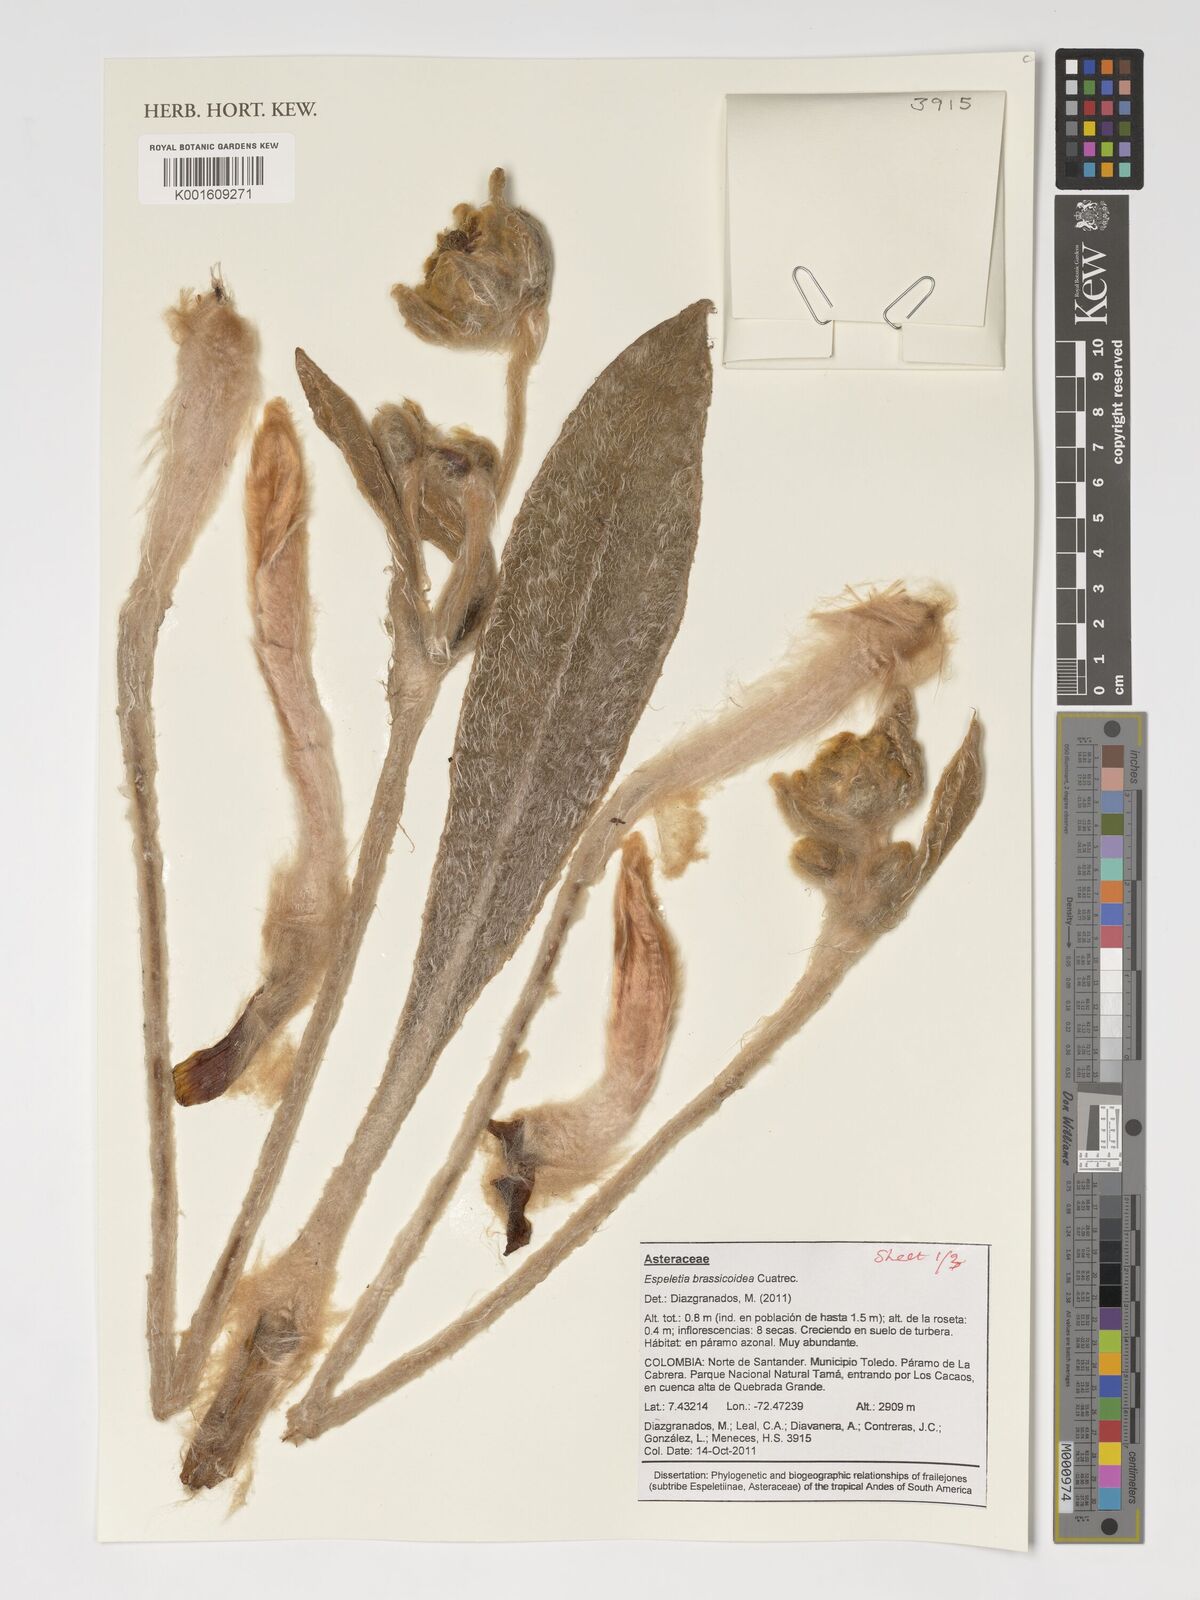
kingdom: Plantae
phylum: Tracheophyta
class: Magnoliopsida
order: Asterales
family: Asteraceae
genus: Espeletia
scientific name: Espeletia brassicoidea
